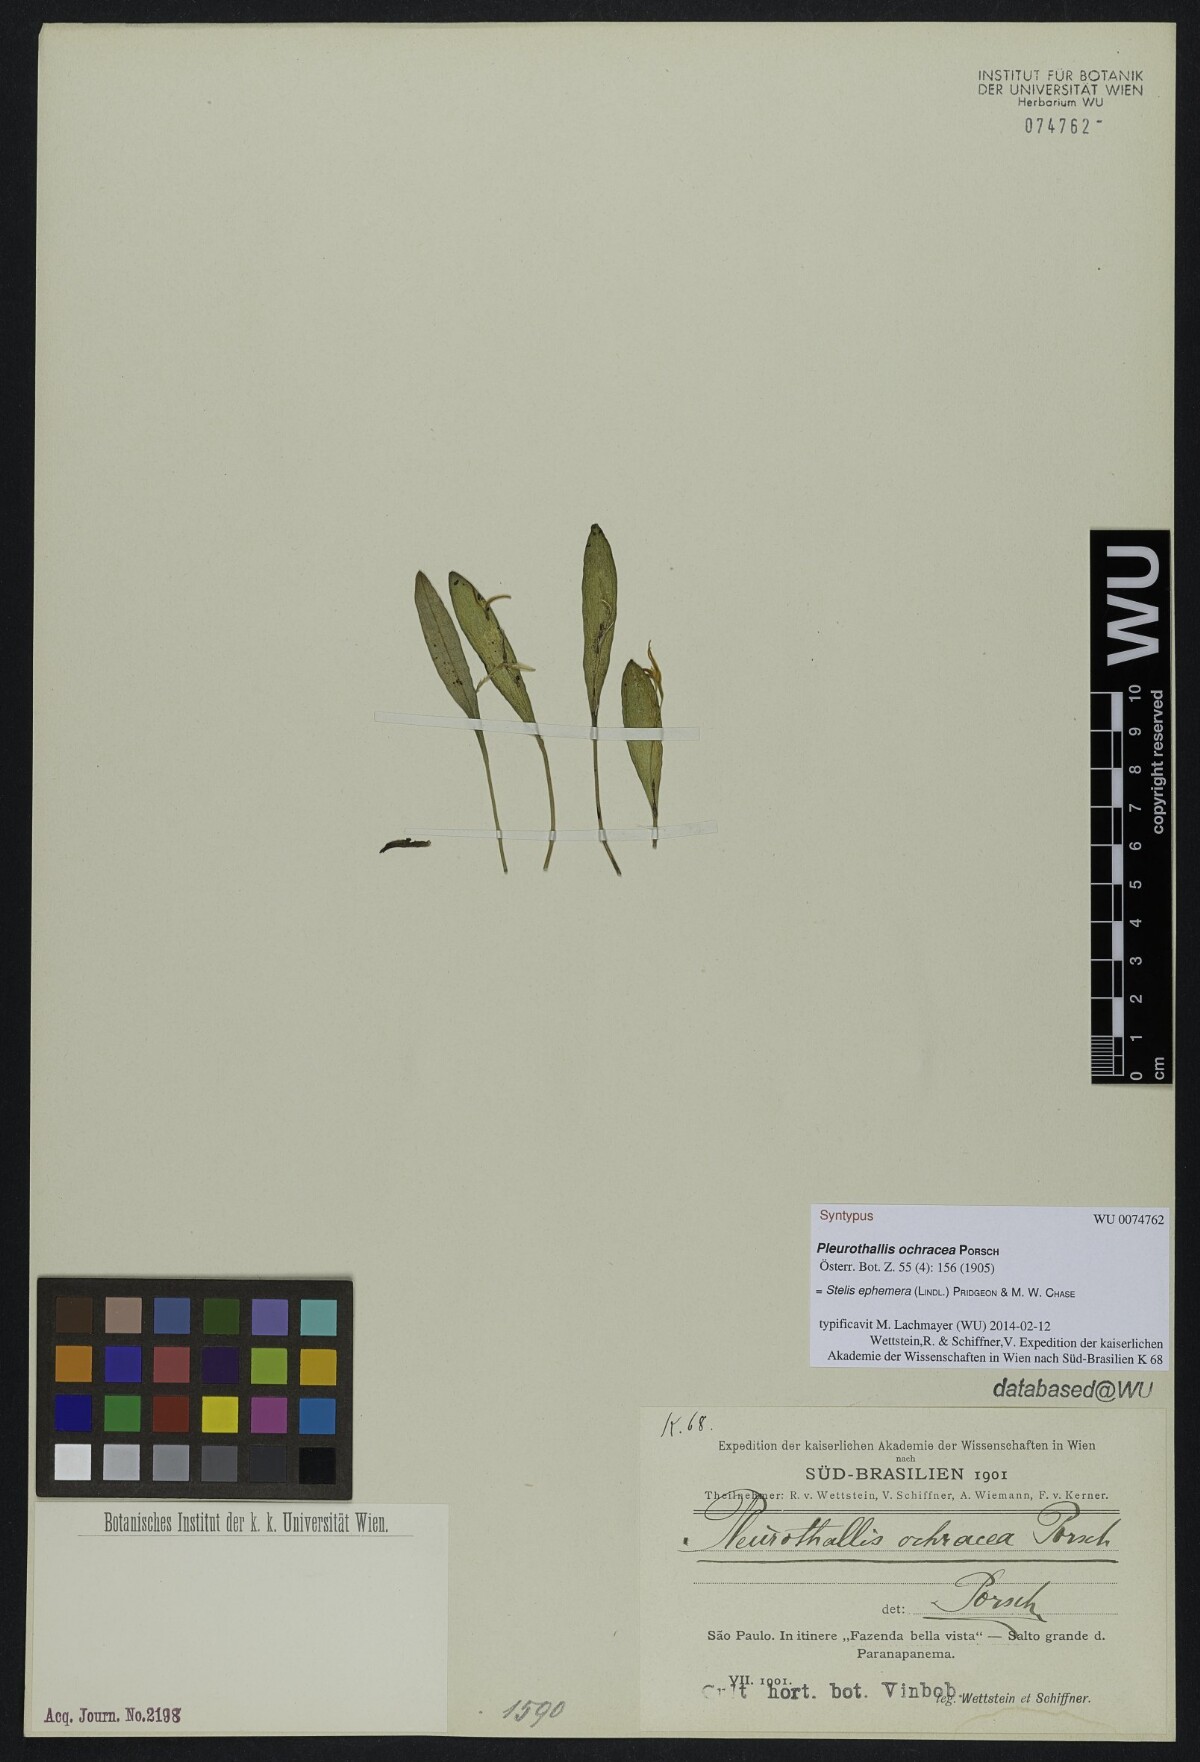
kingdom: Plantae
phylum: Tracheophyta
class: Liliopsida
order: Asparagales
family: Orchidaceae
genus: Pabstiella
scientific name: Pabstiella ephemera
